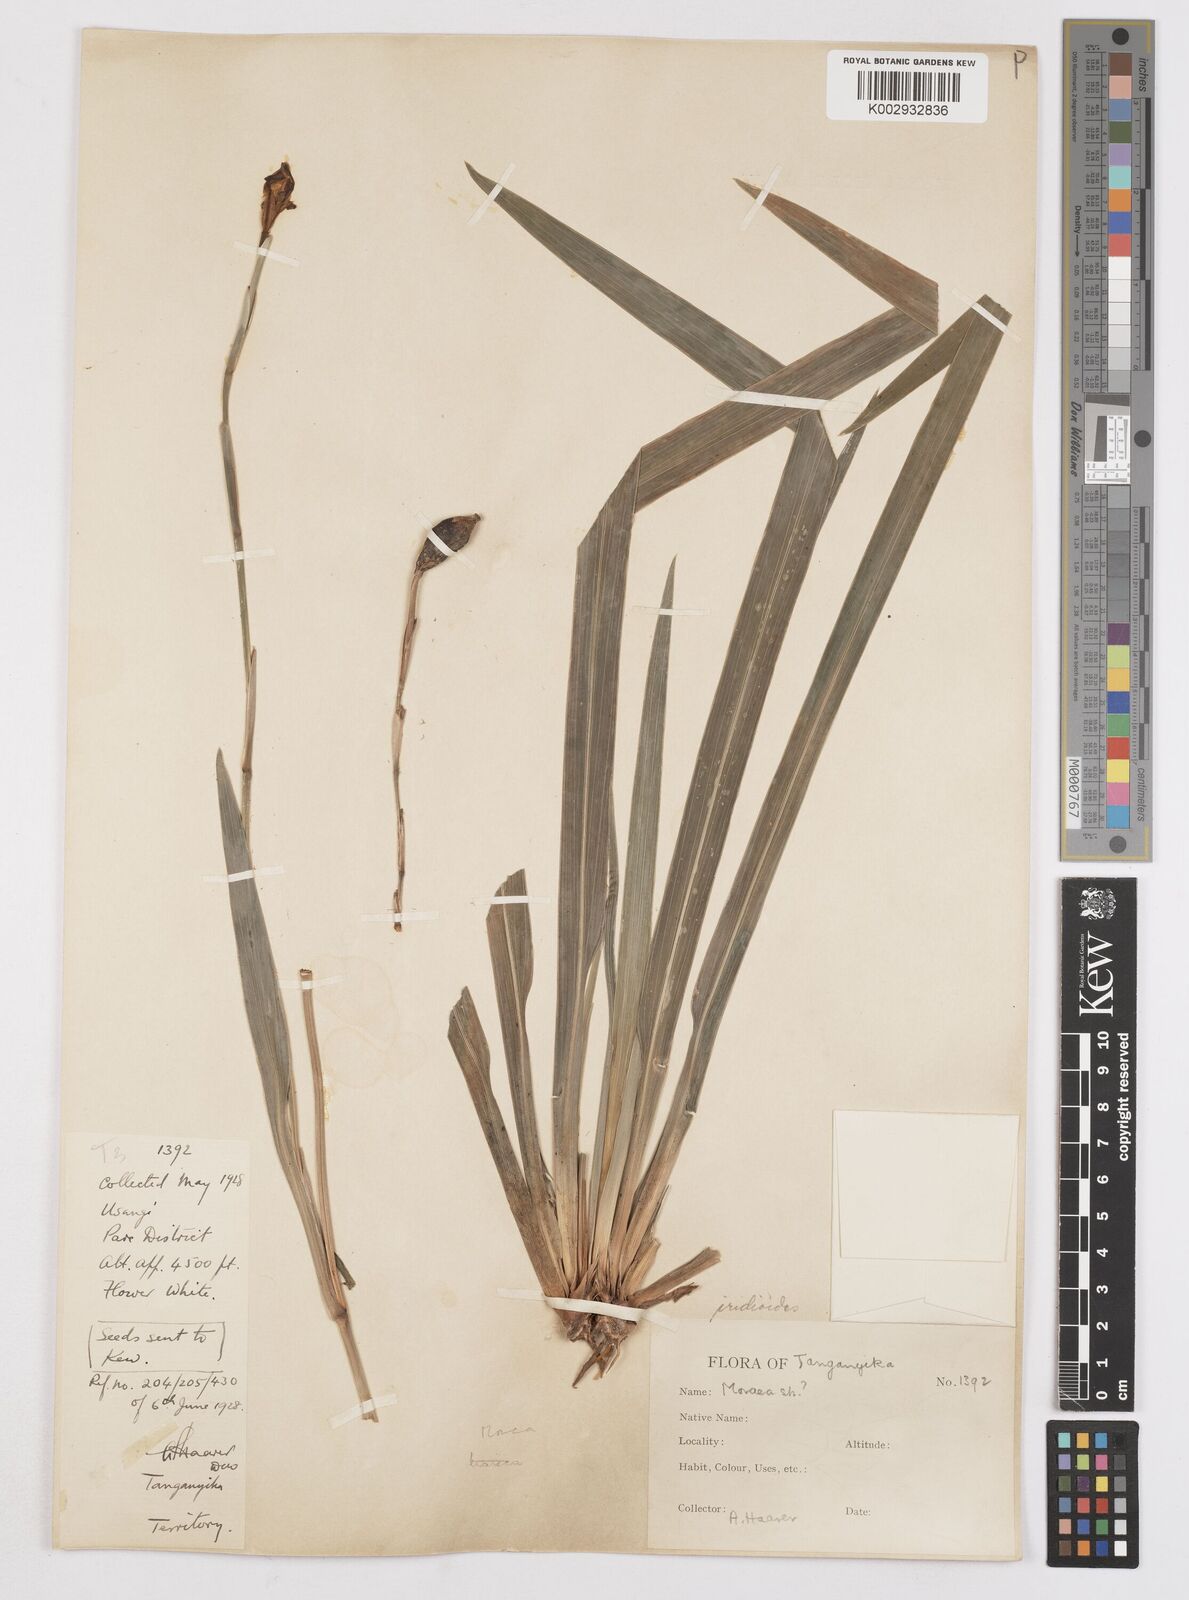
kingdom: Plantae
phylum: Tracheophyta
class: Liliopsida
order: Asparagales
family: Iridaceae
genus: Dietes
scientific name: Dietes iridioides
